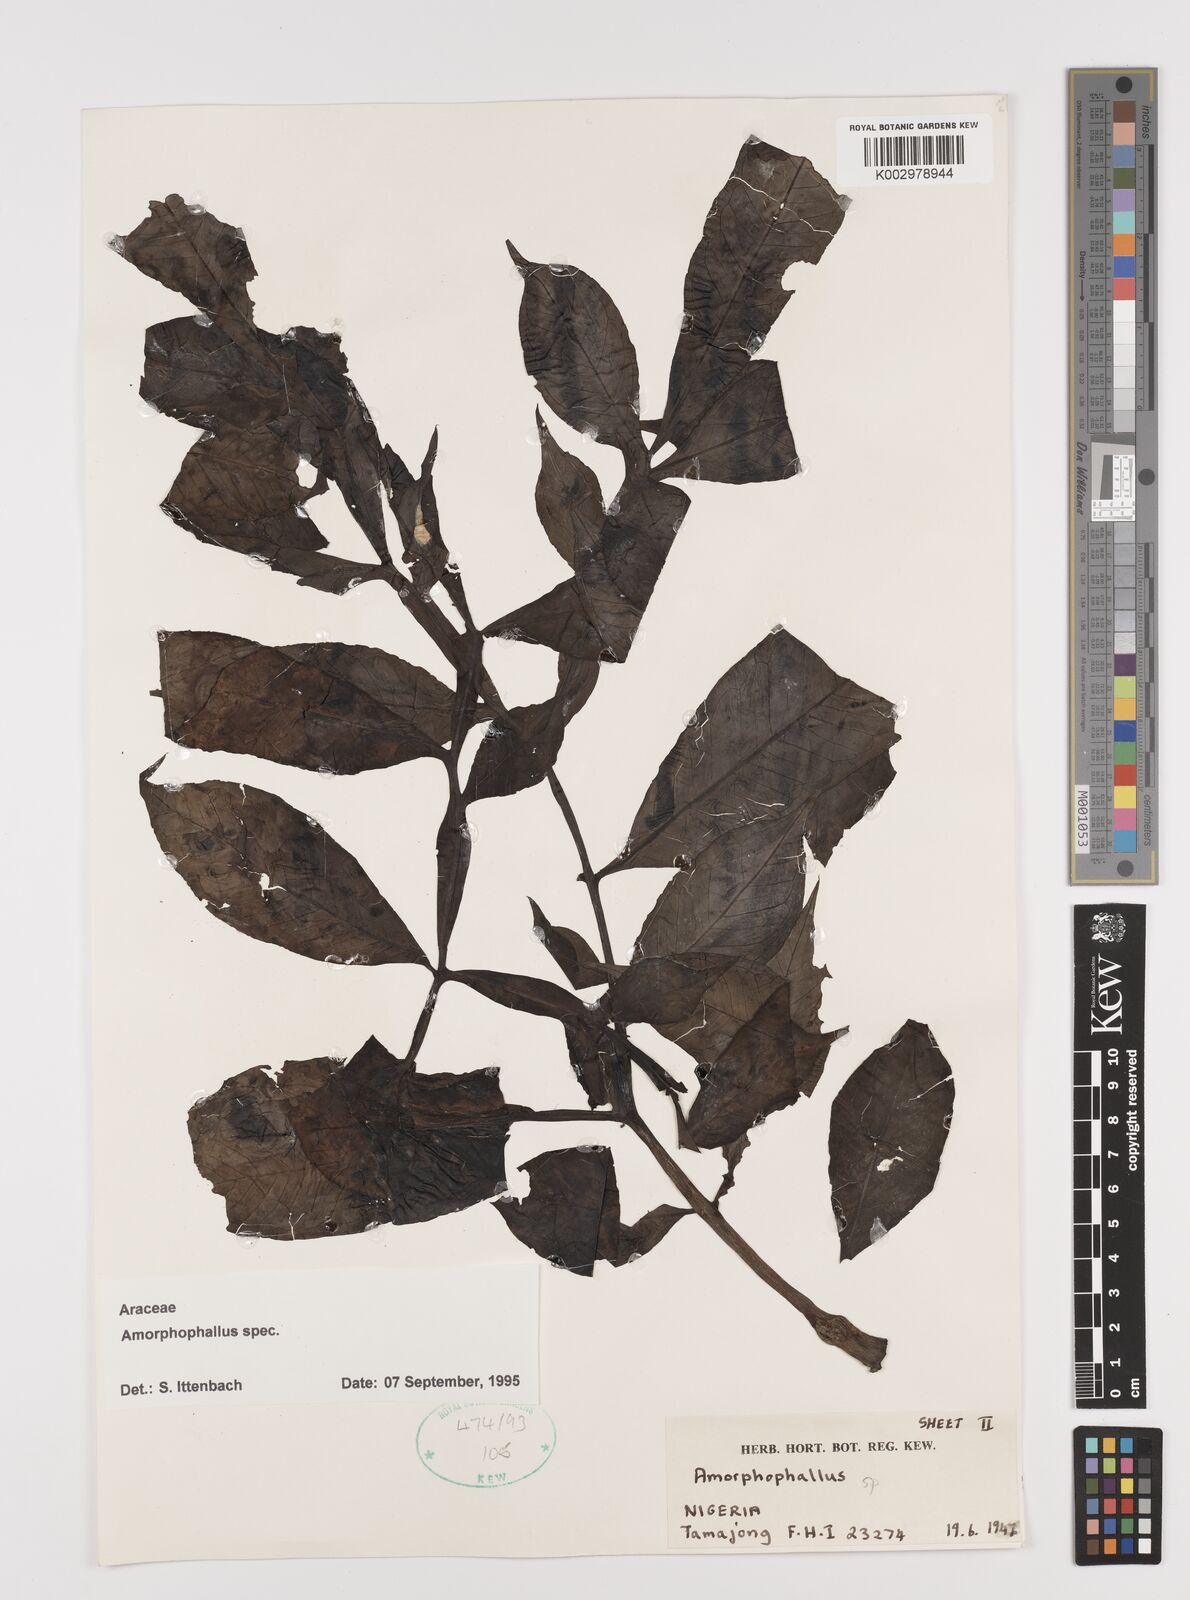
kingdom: Plantae
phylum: Tracheophyta
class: Liliopsida
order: Alismatales
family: Araceae
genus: Amorphophallus
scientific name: Amorphophallus
